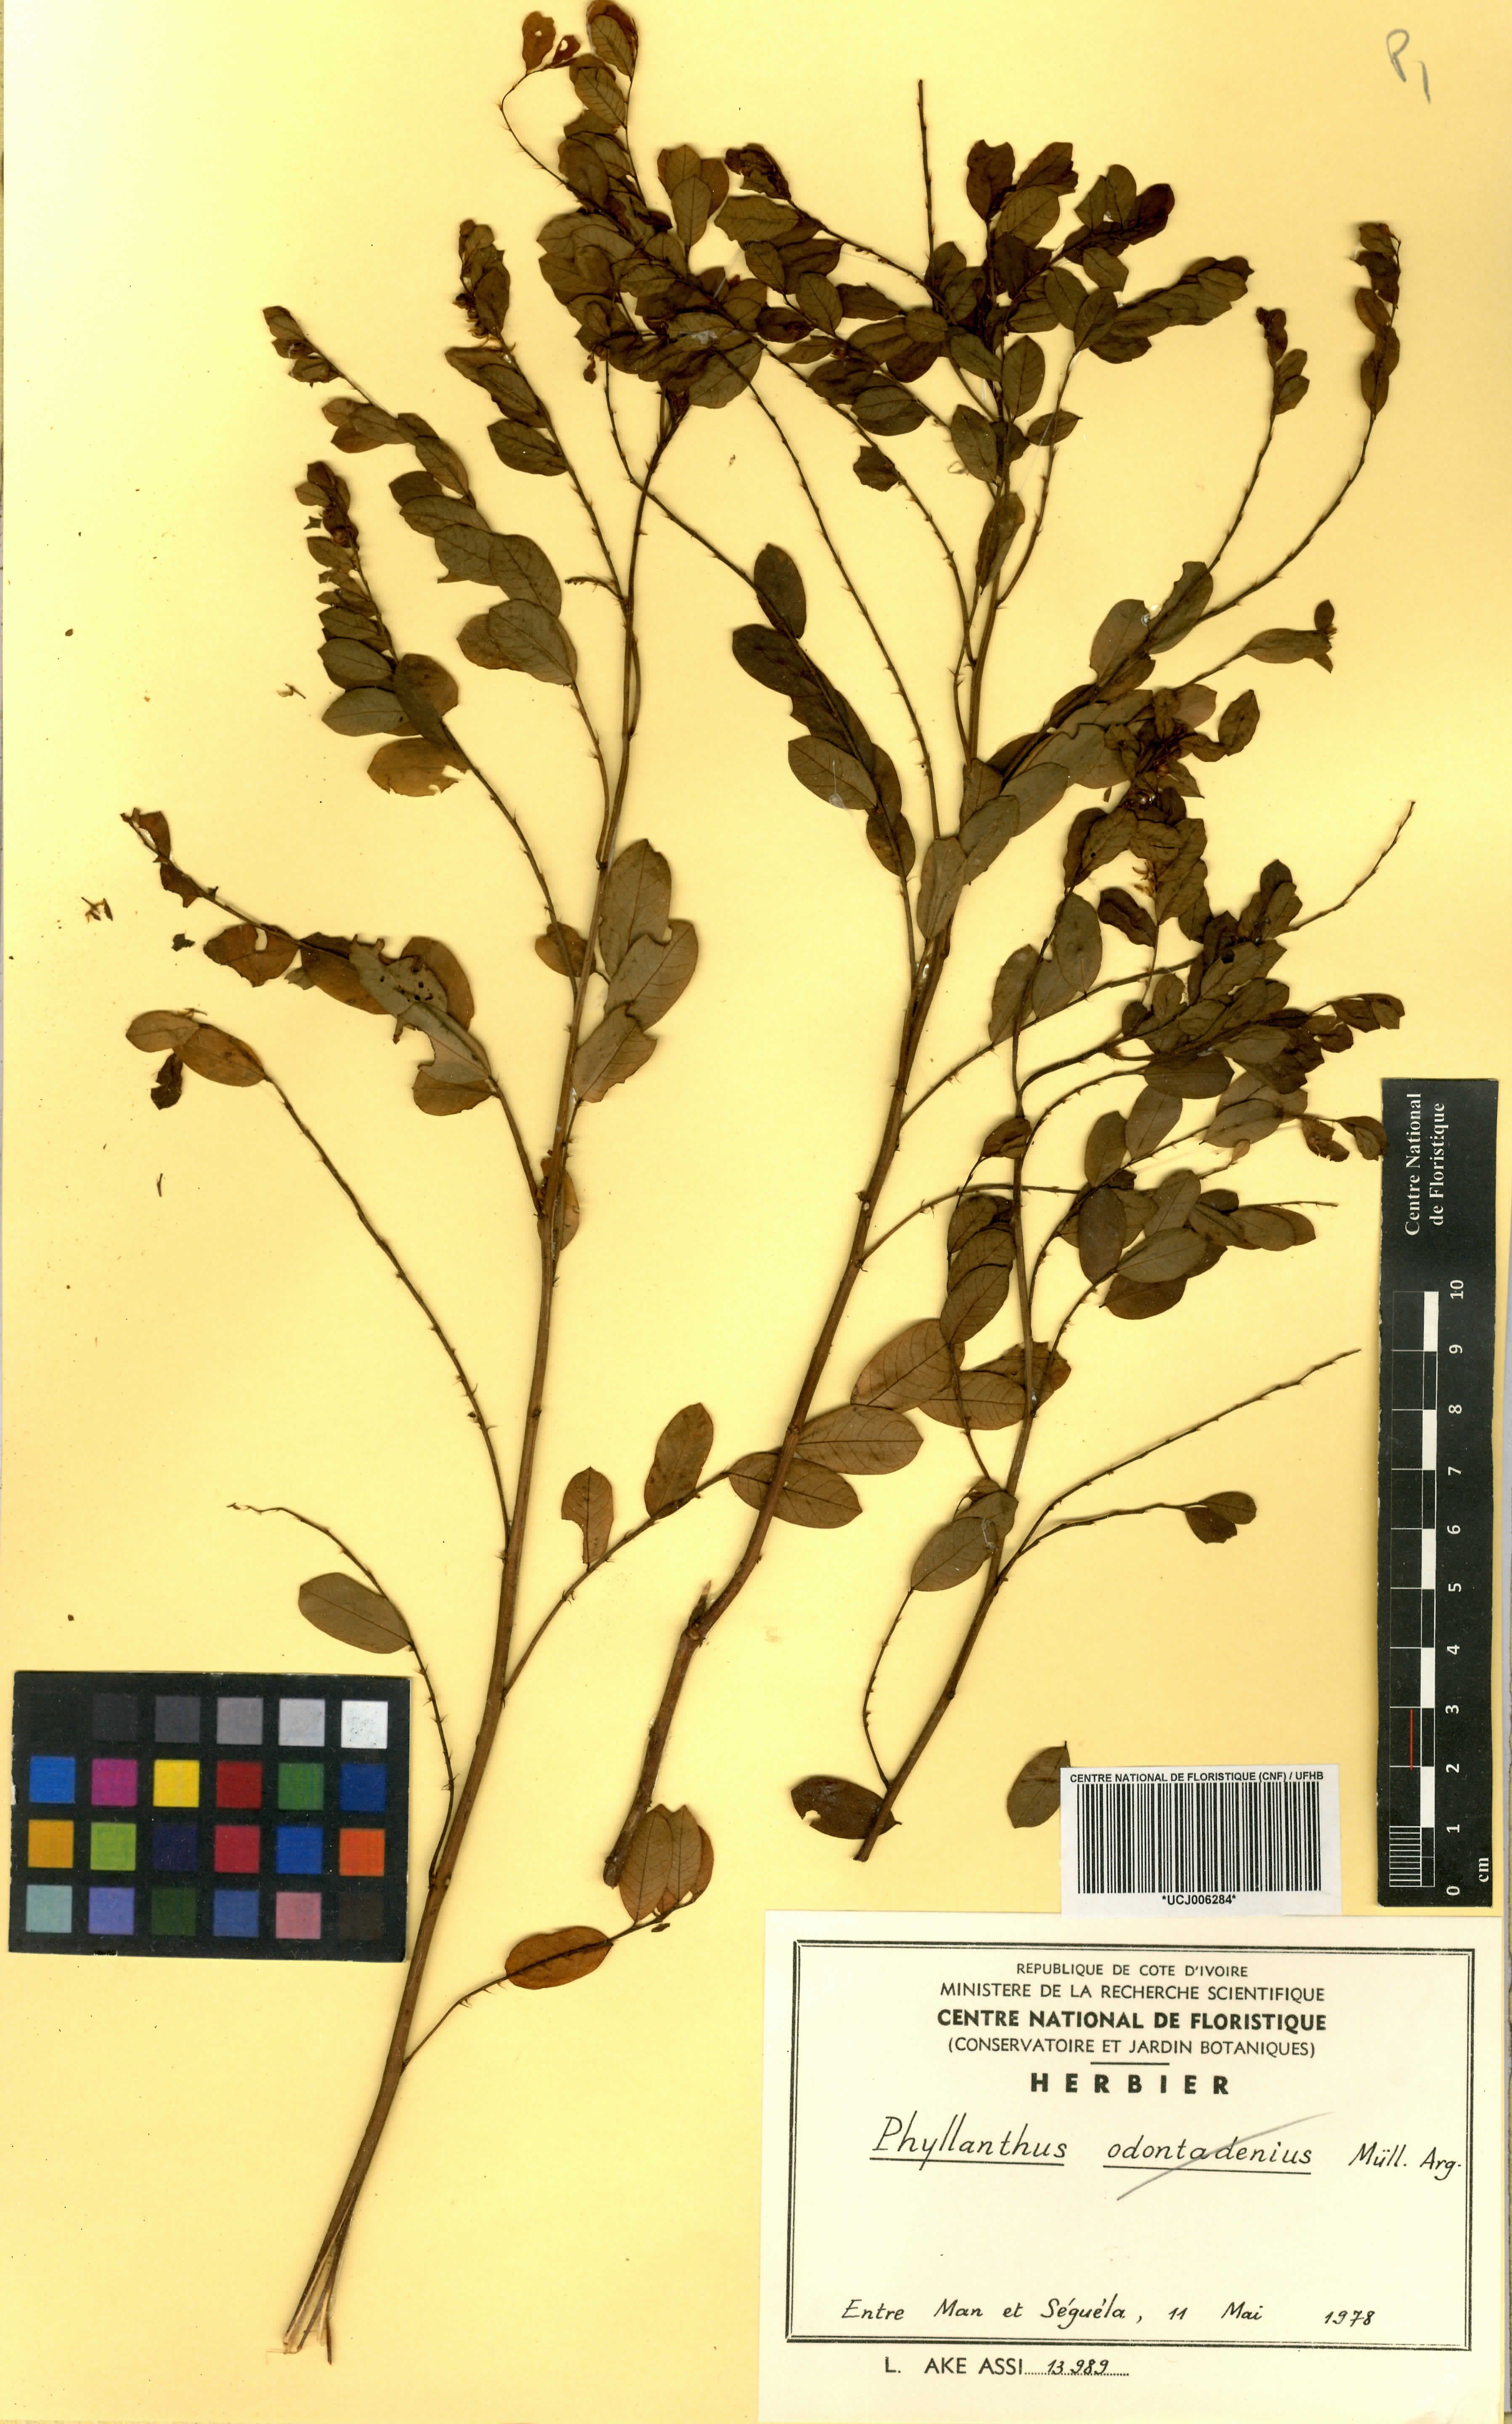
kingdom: Plantae
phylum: Tracheophyta
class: Magnoliopsida
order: Malpighiales
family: Euphorbiaceae
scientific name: Euphorbiaceae
